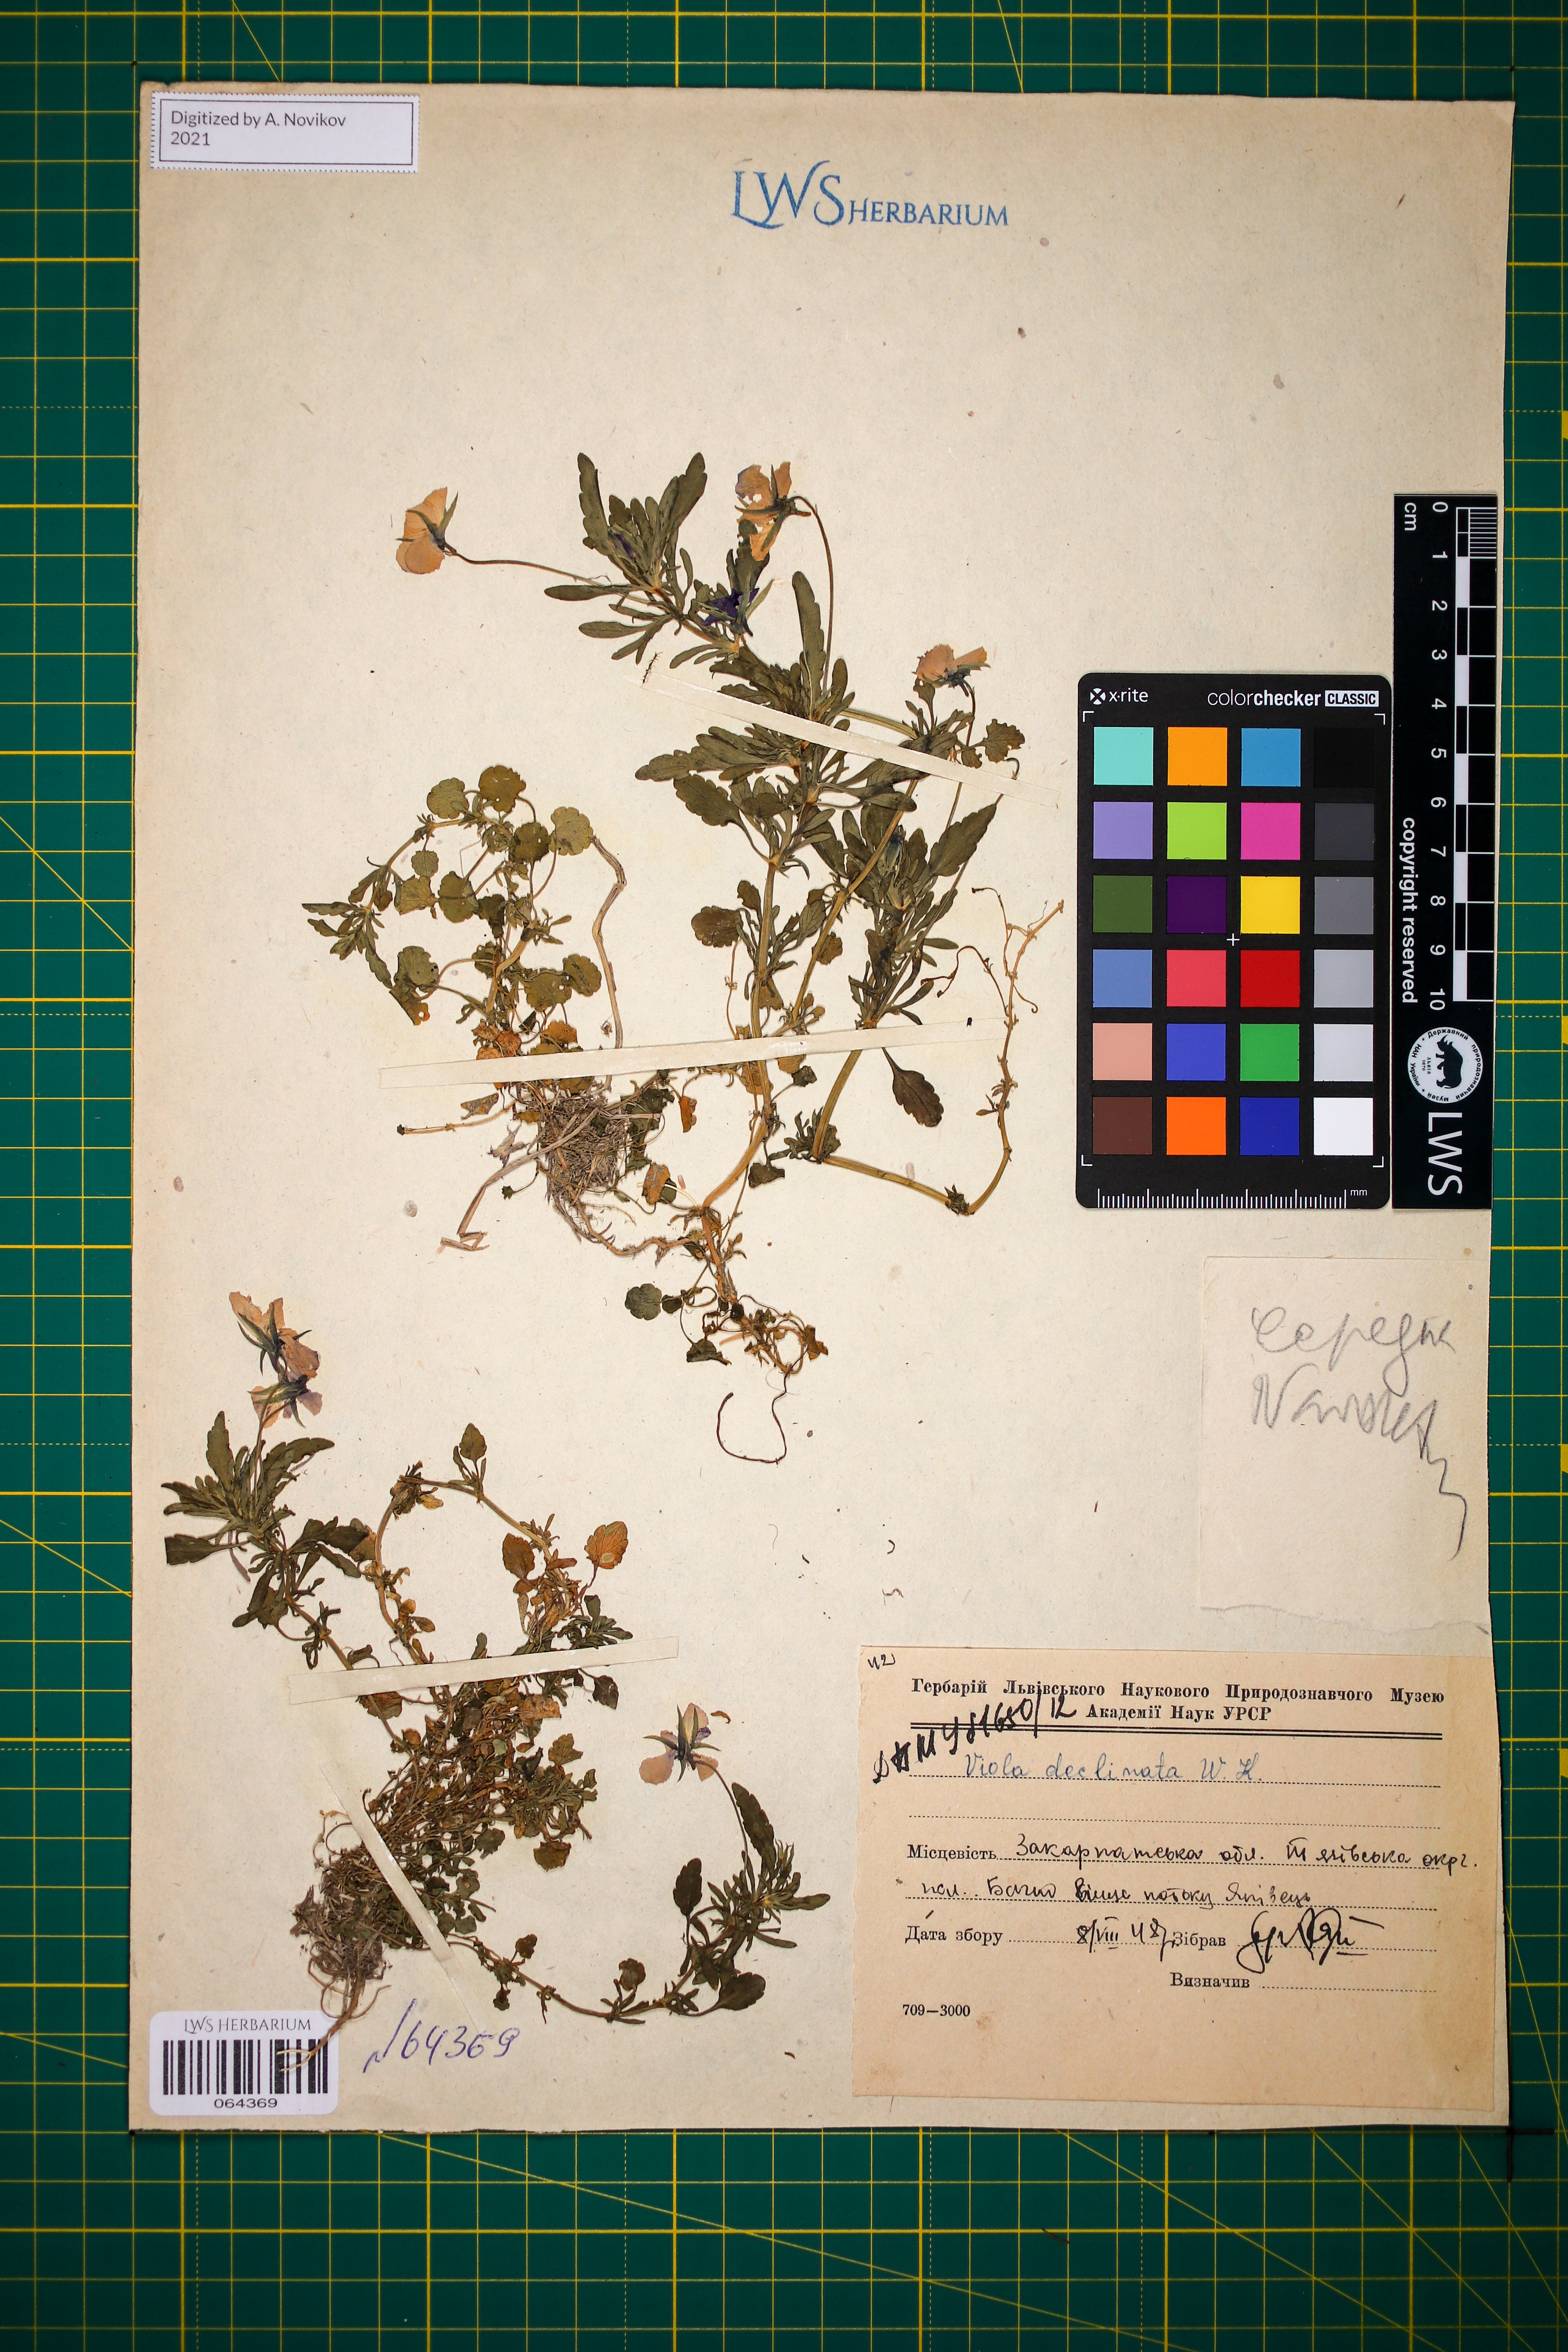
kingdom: Plantae
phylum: Tracheophyta
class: Magnoliopsida
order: Malpighiales
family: Violaceae
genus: Viola
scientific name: Viola declinata
